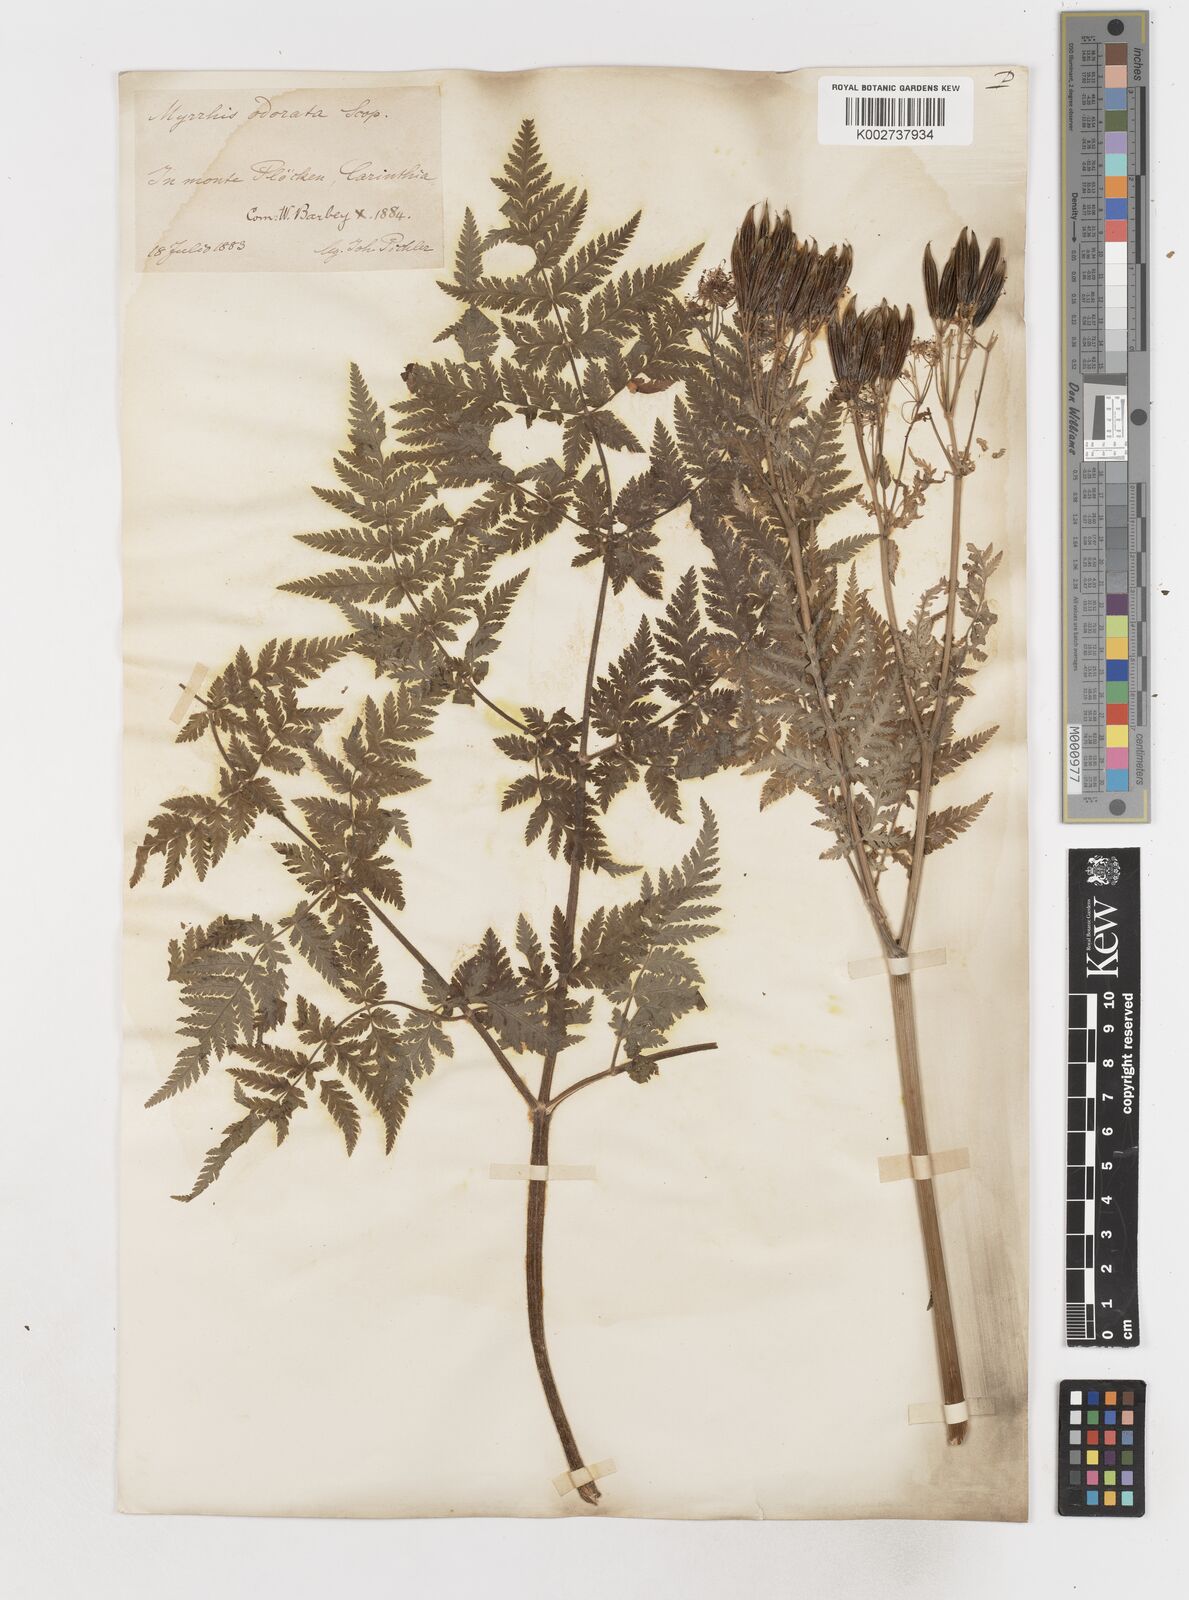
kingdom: Plantae
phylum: Tracheophyta
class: Magnoliopsida
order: Apiales
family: Apiaceae
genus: Myrrhis
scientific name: Myrrhis odorata
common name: Sweet cicely
